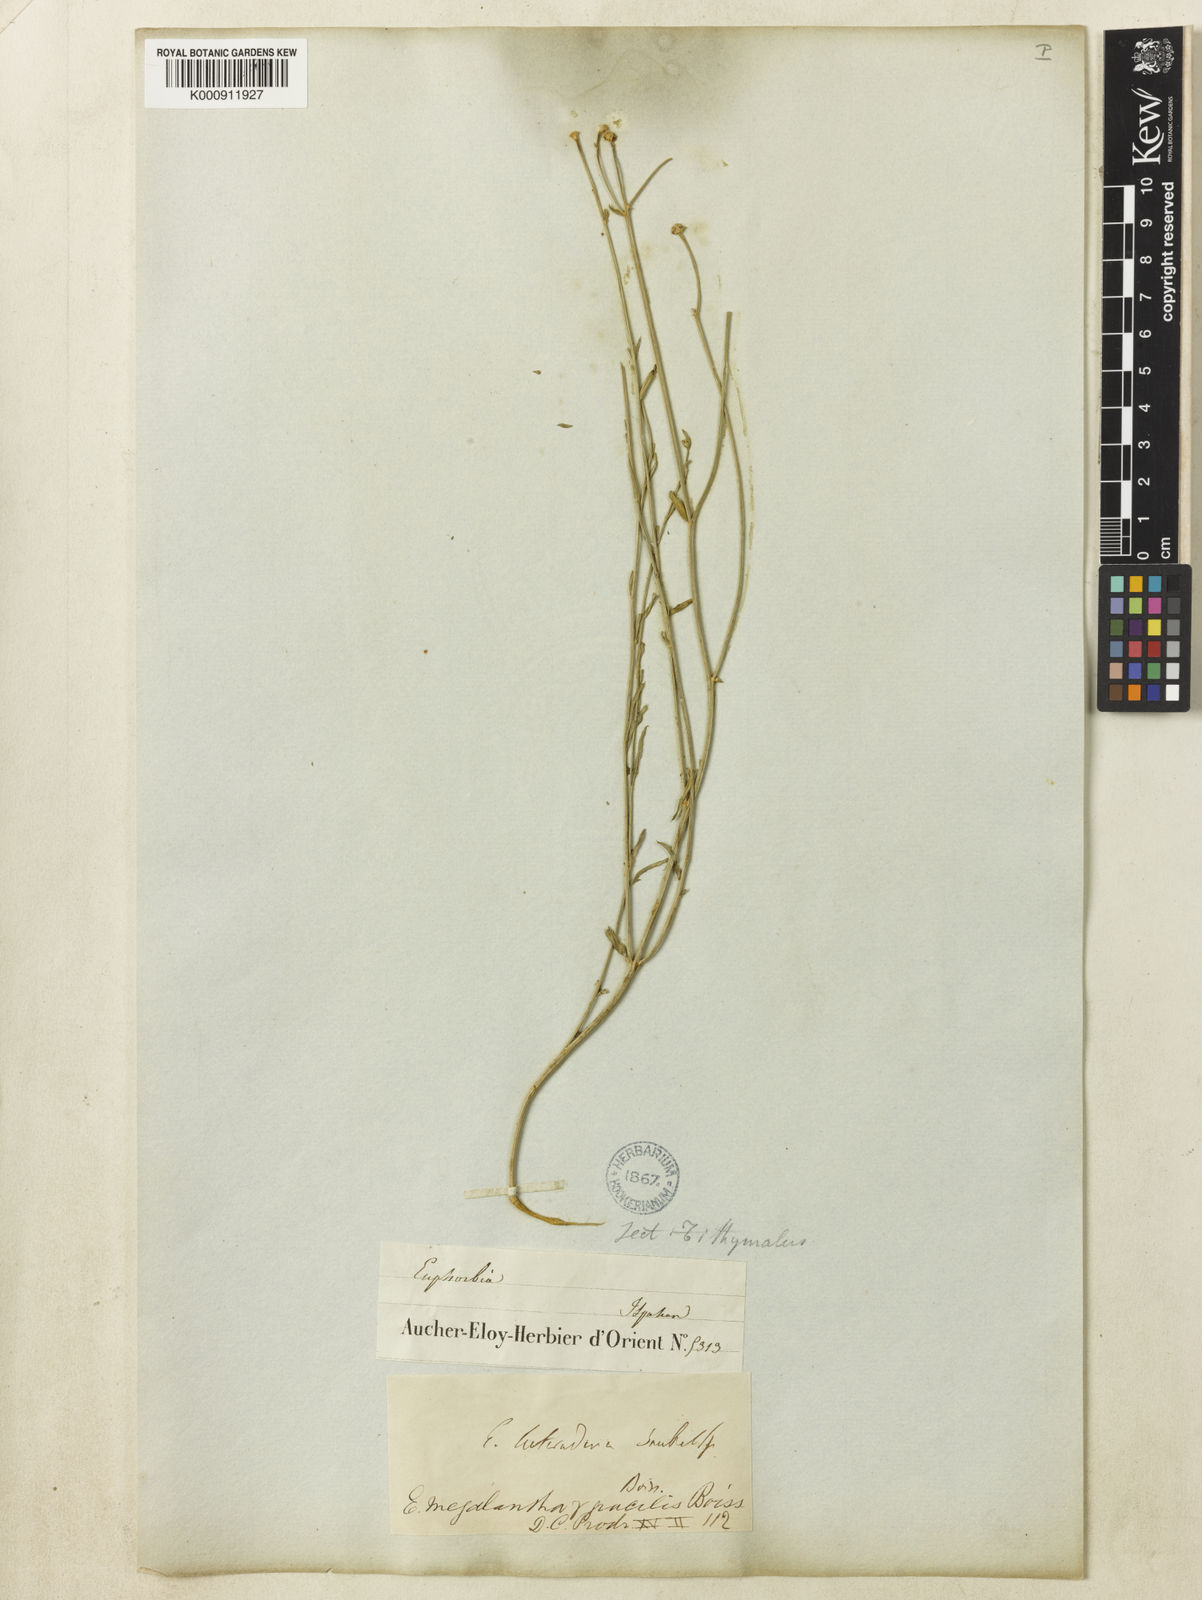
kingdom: Plantae
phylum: Tracheophyta
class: Magnoliopsida
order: Malpighiales
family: Euphorbiaceae
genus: Euphorbia
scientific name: Euphorbia heteradena
